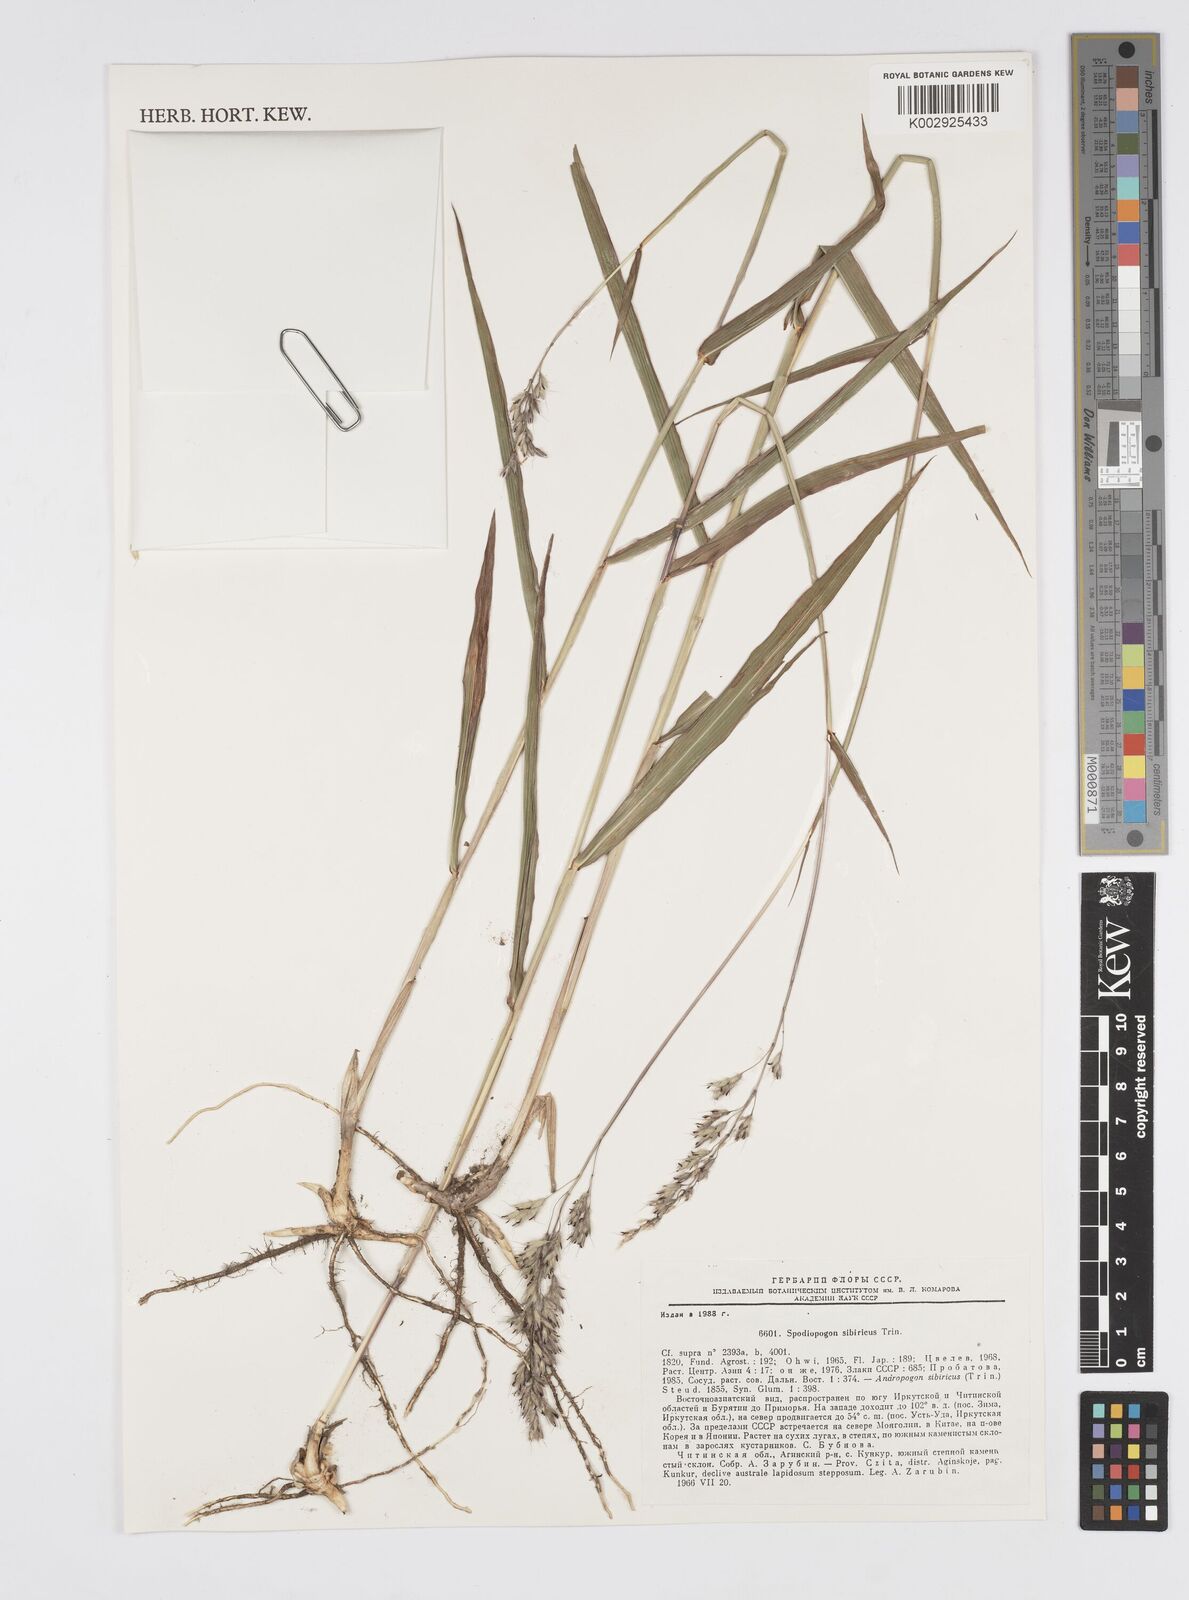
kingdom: Plantae
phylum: Tracheophyta
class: Liliopsida
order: Poales
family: Poaceae
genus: Spodiopogon
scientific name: Spodiopogon sibiricus
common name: Siberian graybeard
